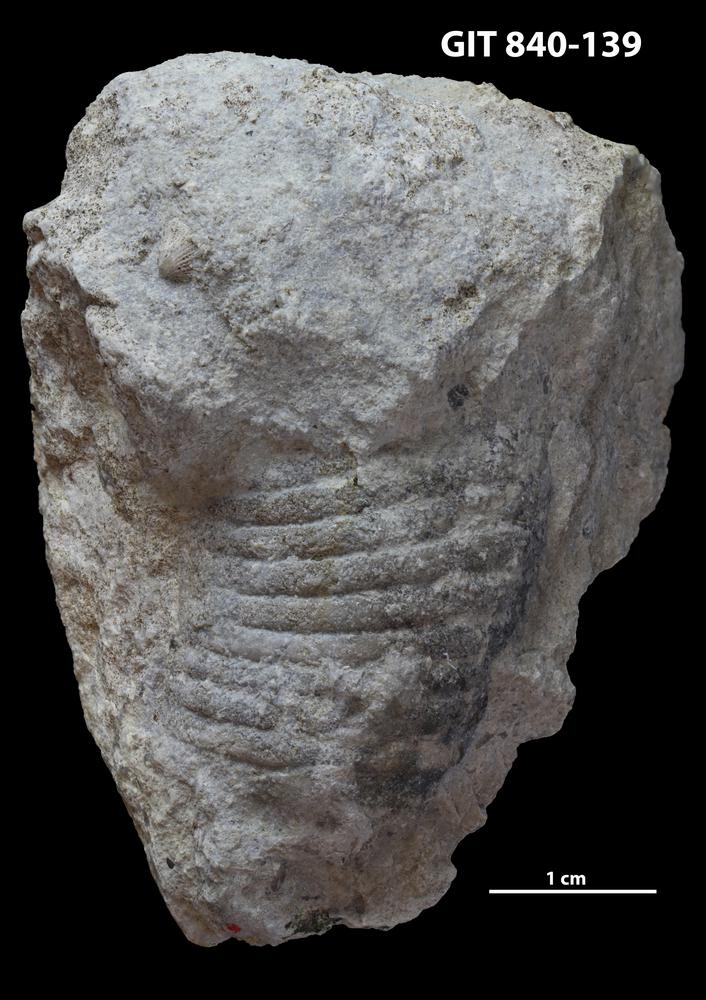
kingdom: Animalia
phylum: Mollusca
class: Cephalopoda
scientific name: Cephalopoda
